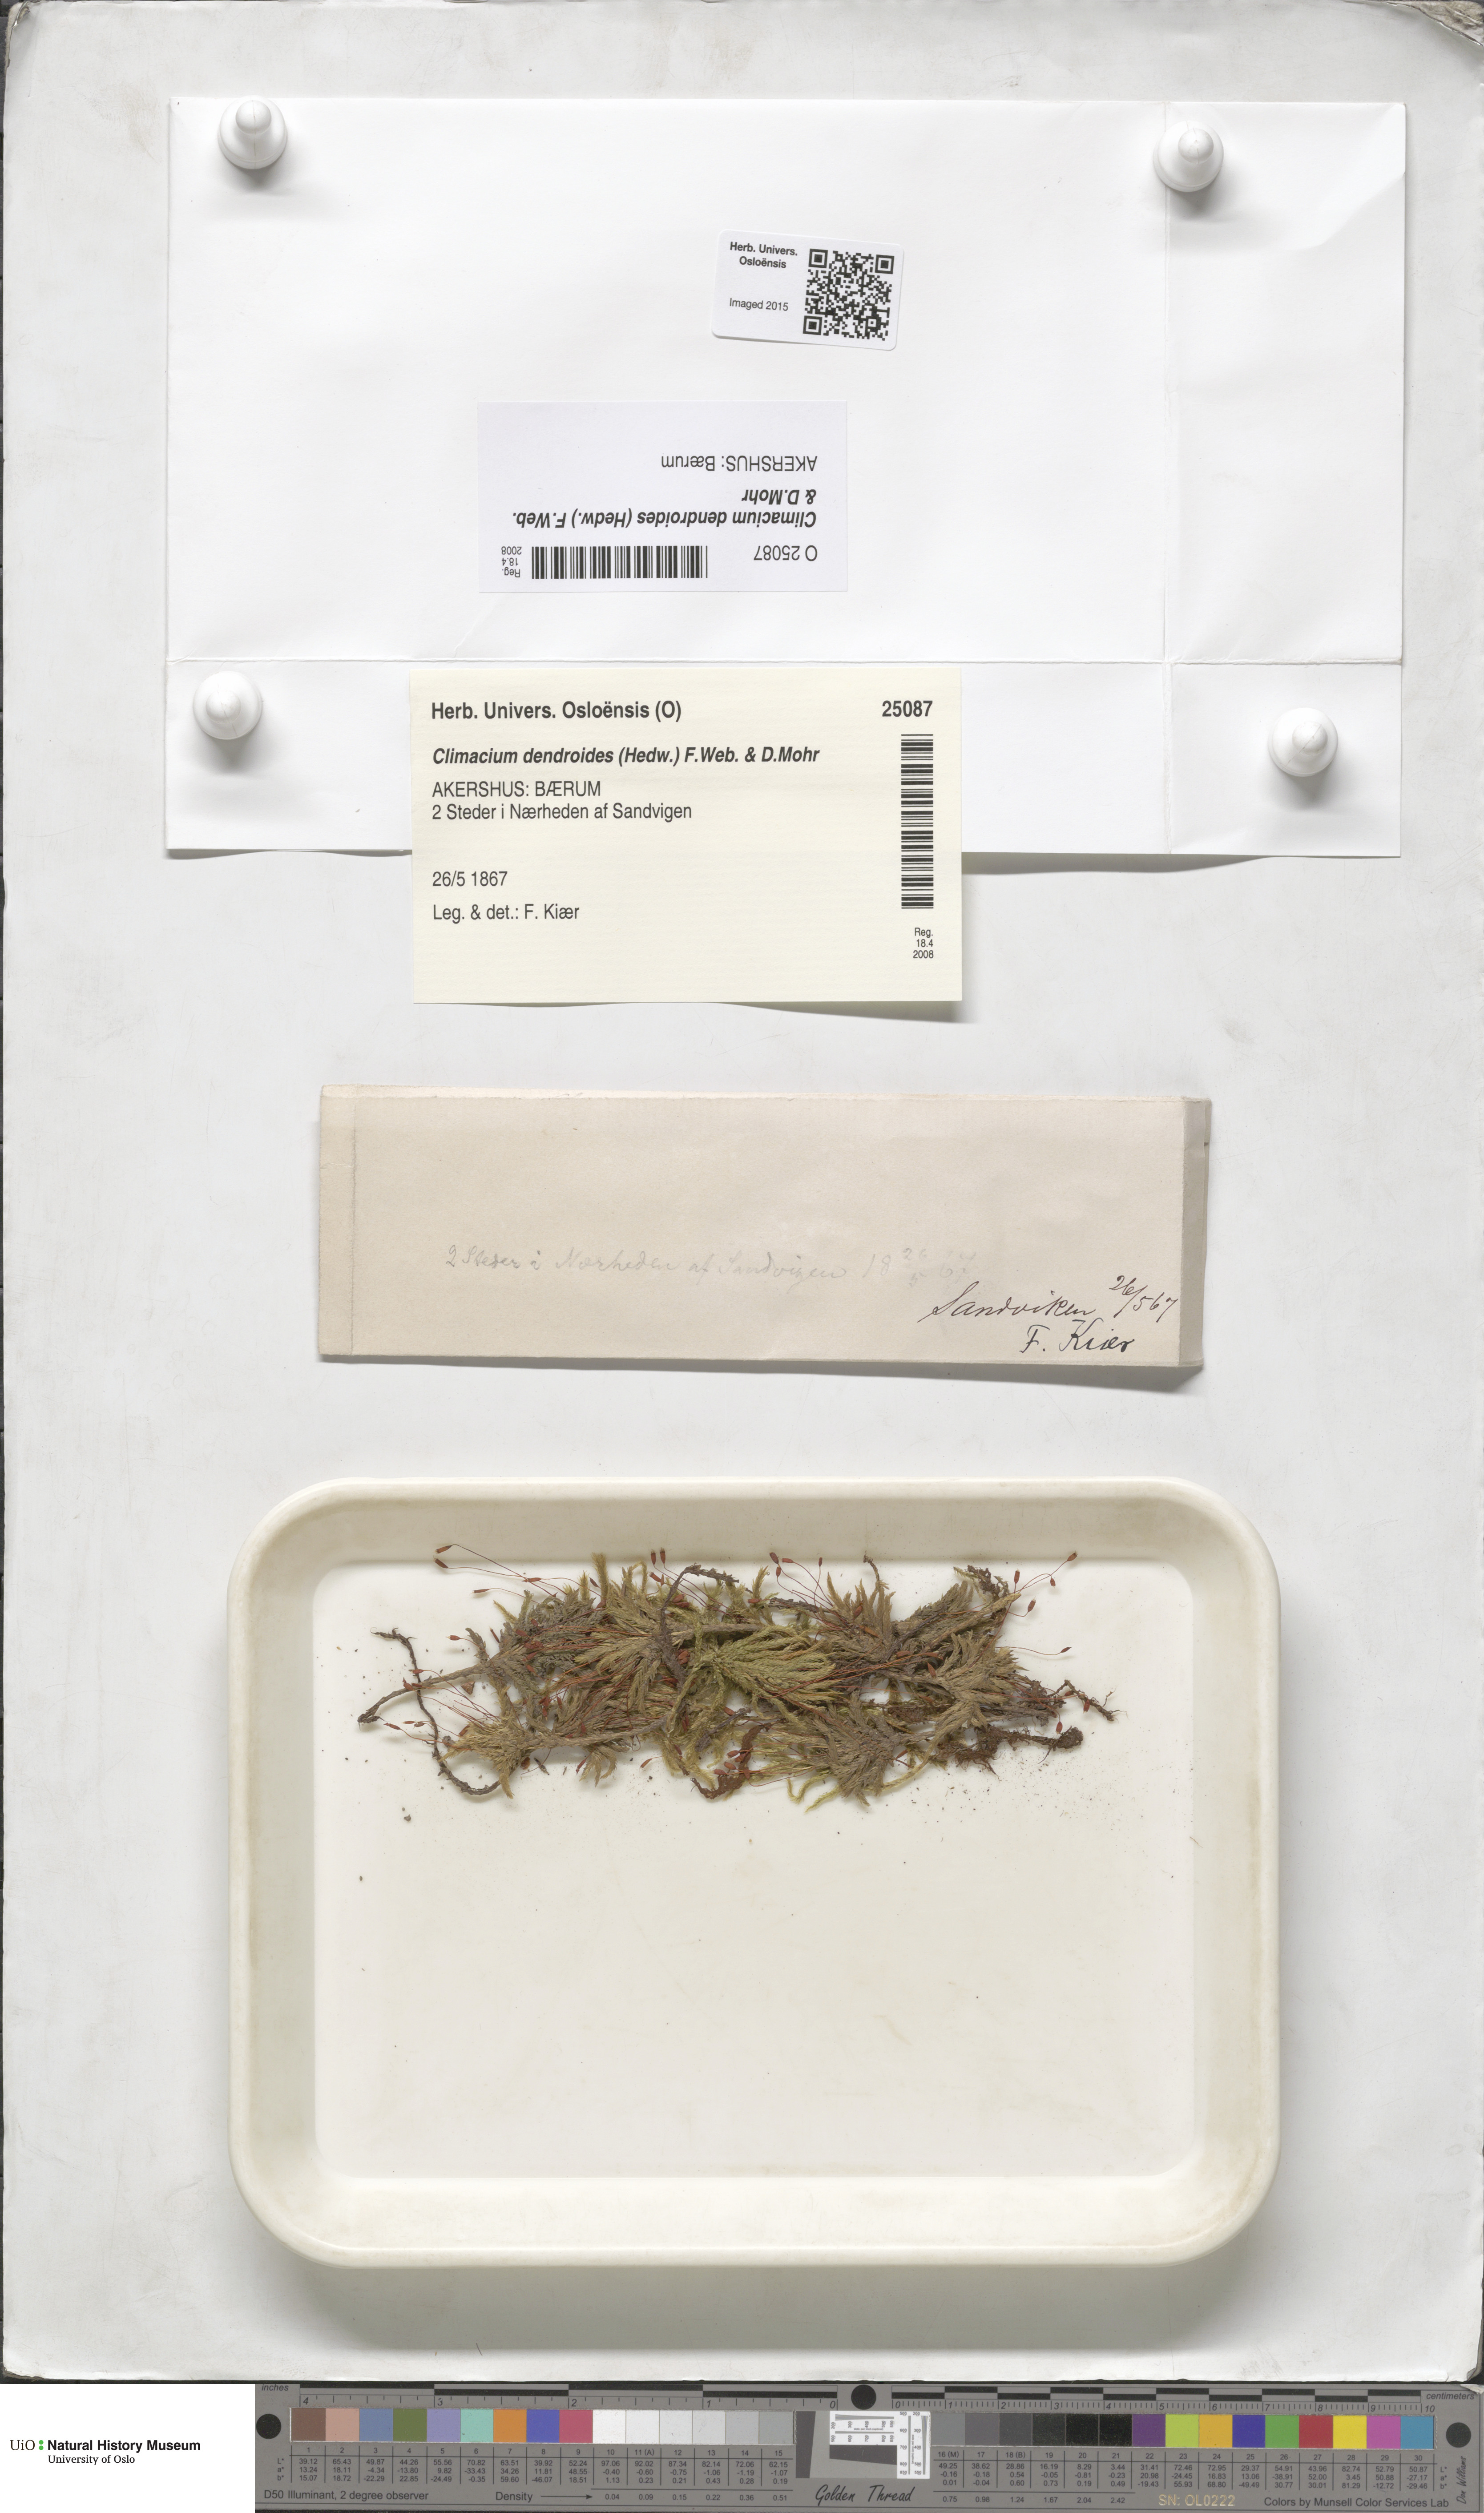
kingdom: Plantae
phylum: Bryophyta
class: Bryopsida
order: Hypnales
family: Climaciaceae
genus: Climacium
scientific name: Climacium dendroides
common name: Northern tree moss
